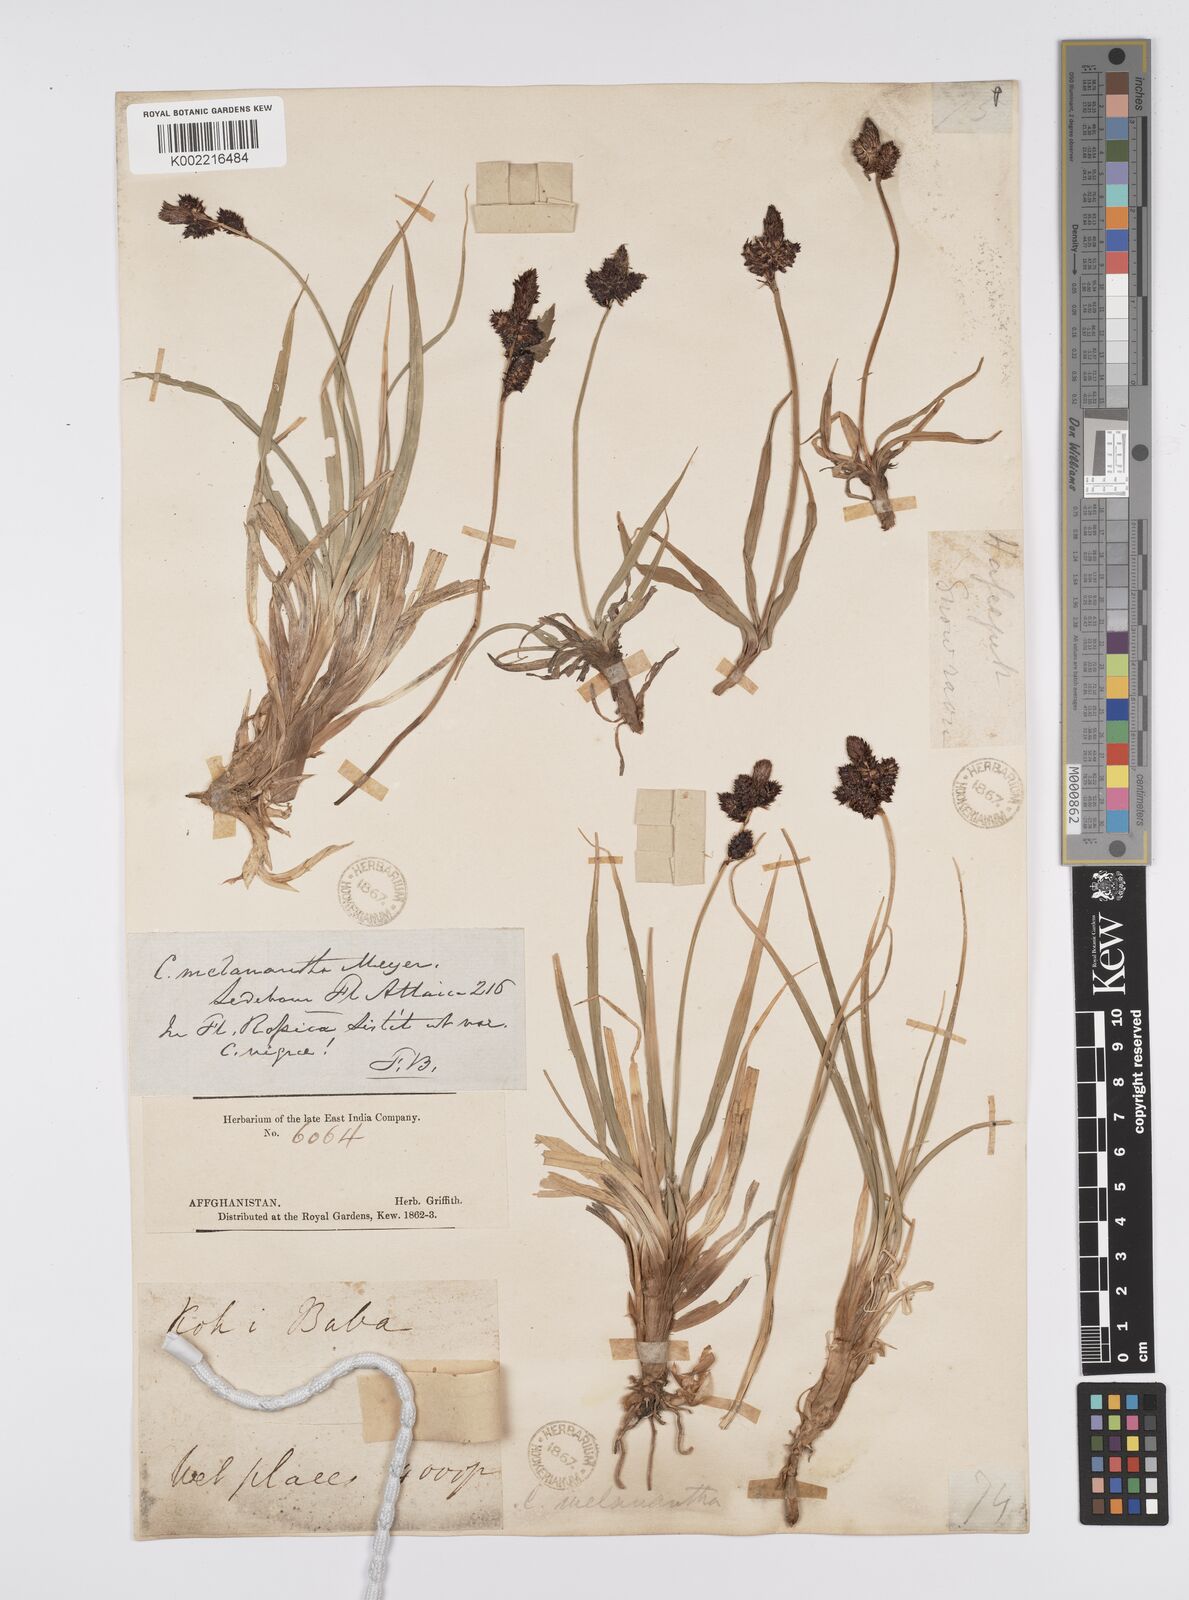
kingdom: Plantae
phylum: Tracheophyta
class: Liliopsida
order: Poales
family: Cyperaceae
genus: Carex
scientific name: Carex melanantha
